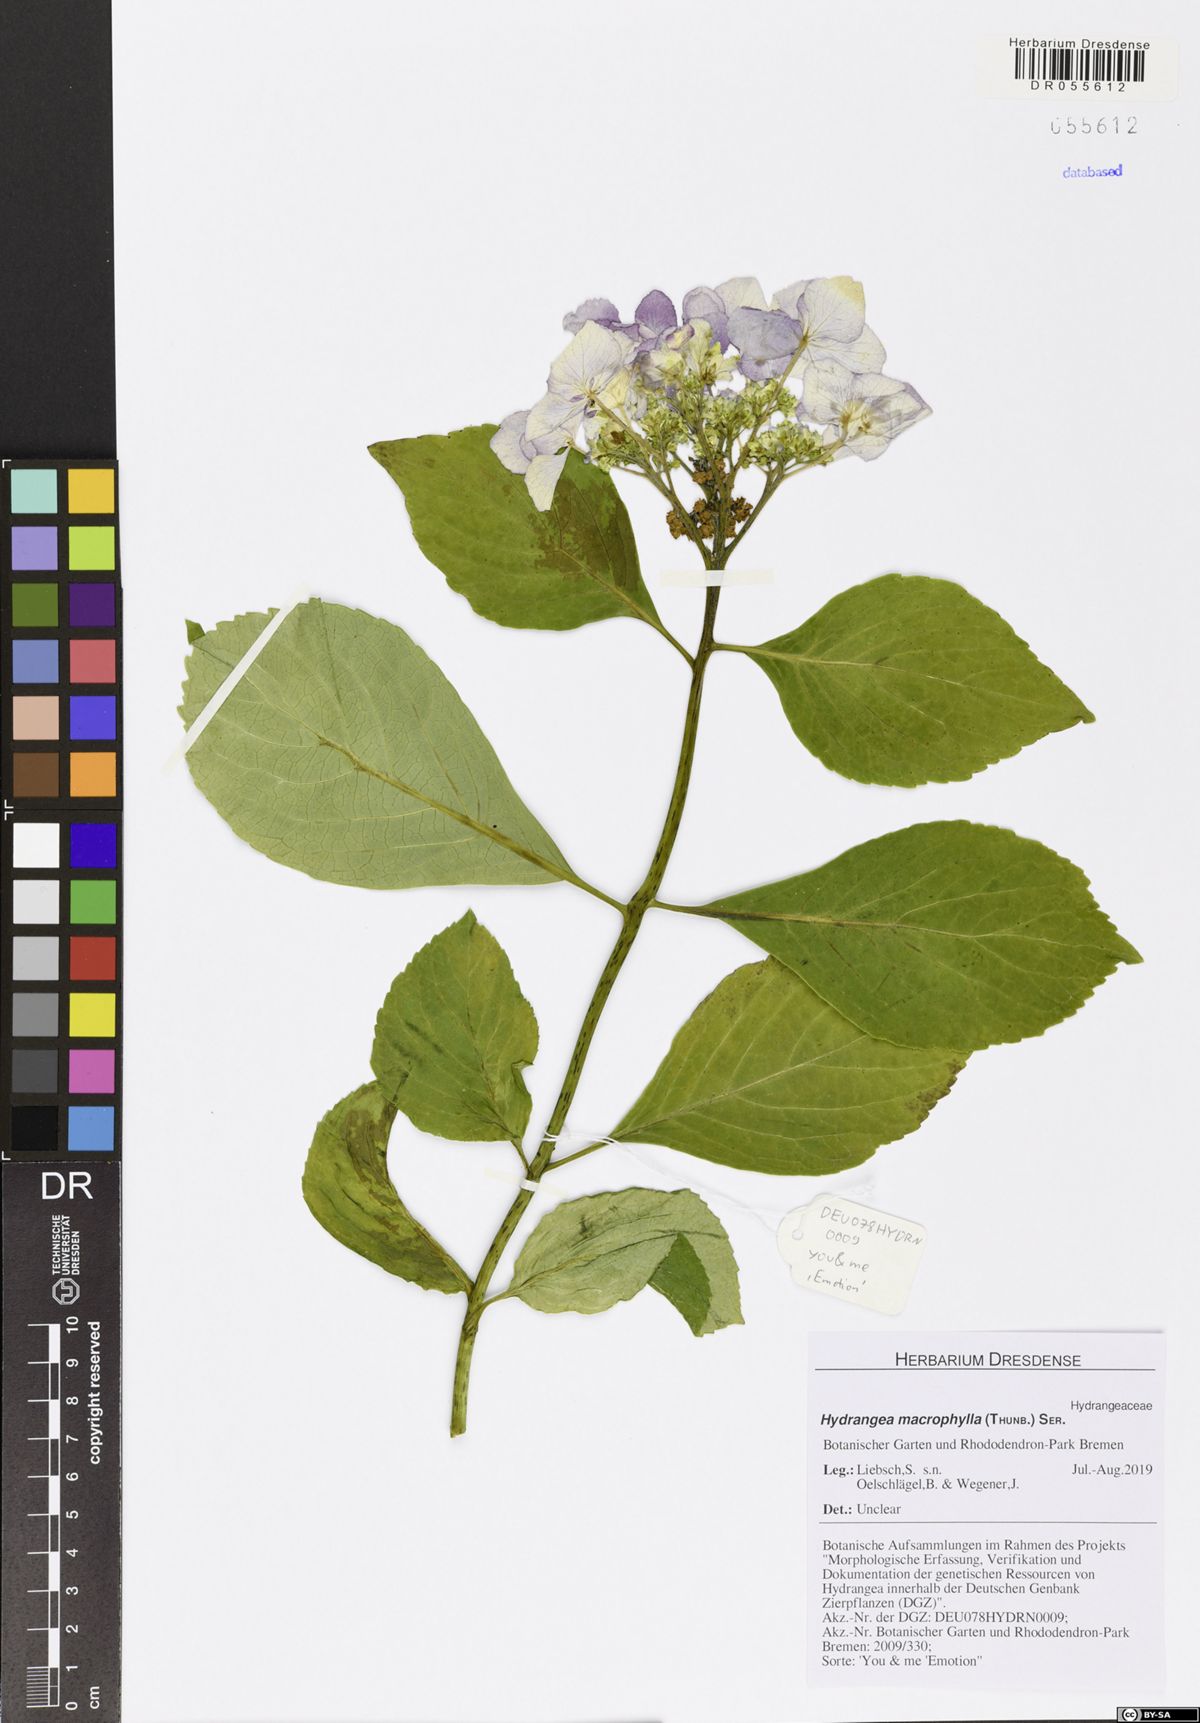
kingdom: Plantae
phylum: Tracheophyta
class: Magnoliopsida
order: Cornales
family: Hydrangeaceae
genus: Hydrangea
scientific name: Hydrangea macrophylla
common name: Hydrangea
